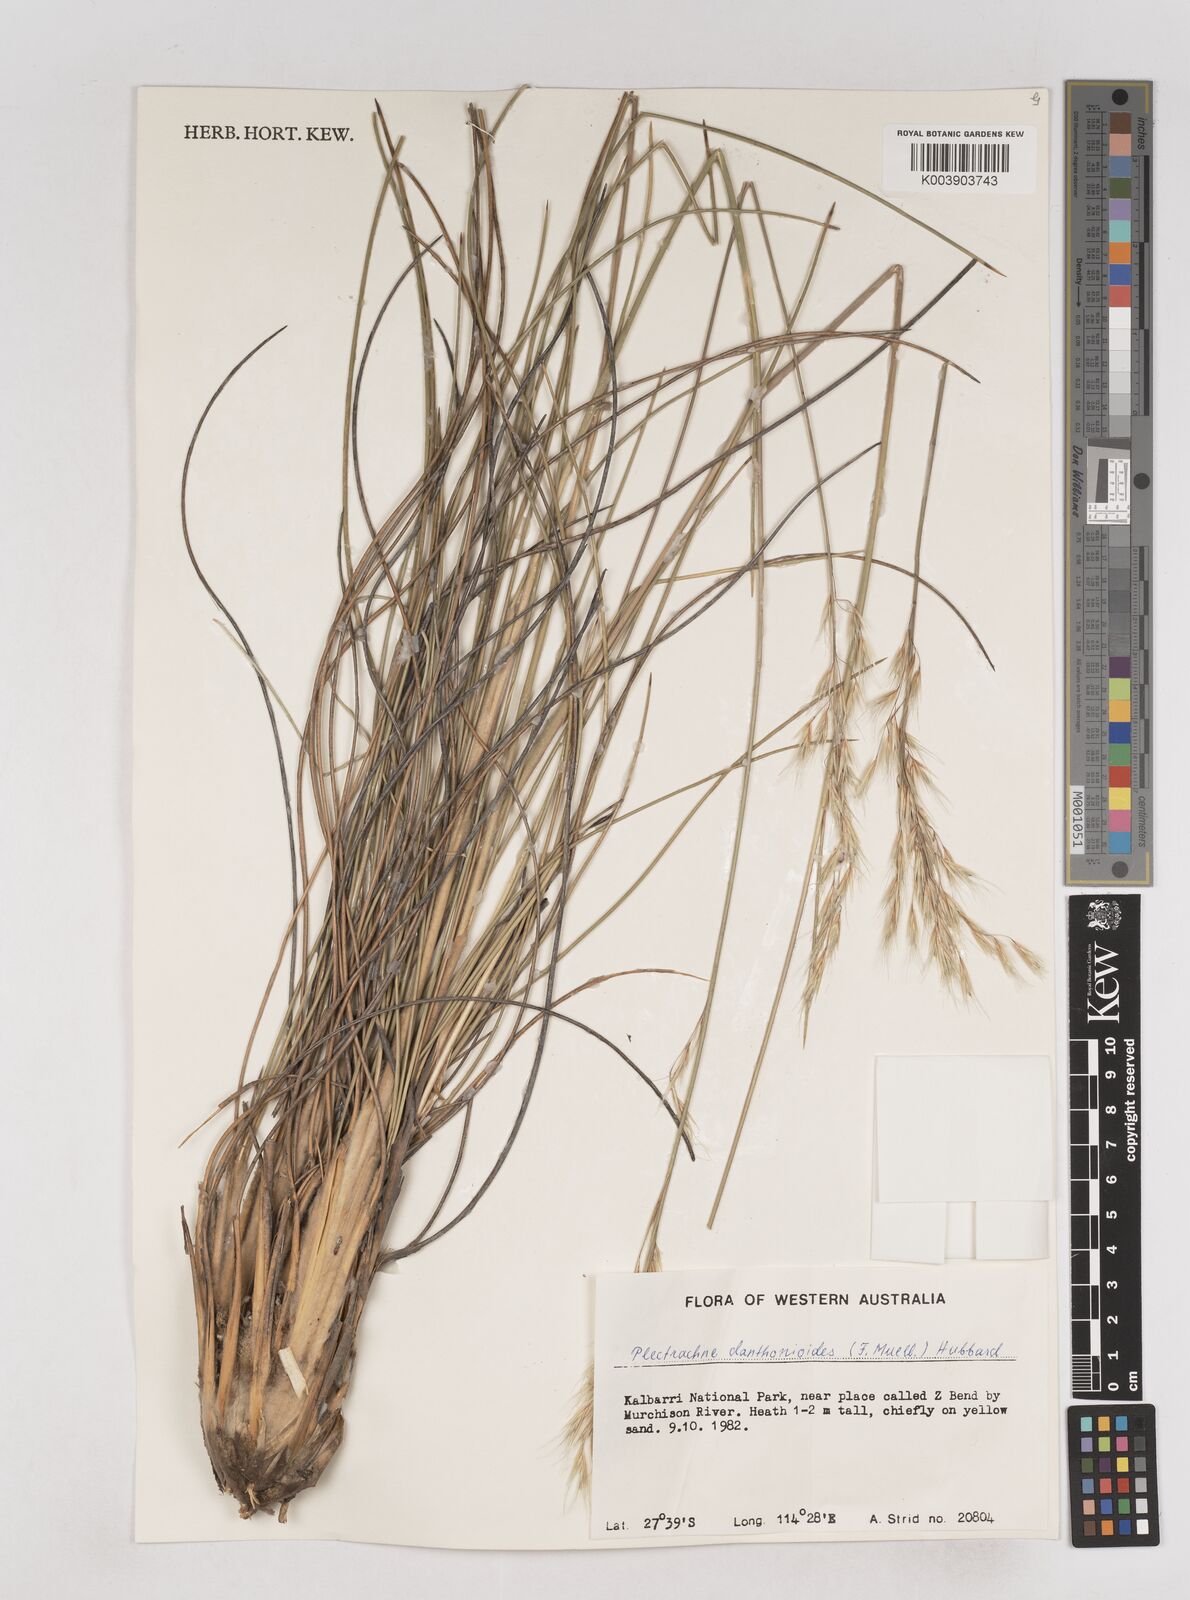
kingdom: Plantae
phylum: Tracheophyta
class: Liliopsida
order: Poales
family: Poaceae
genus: Triodia
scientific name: Triodia danthonioides
